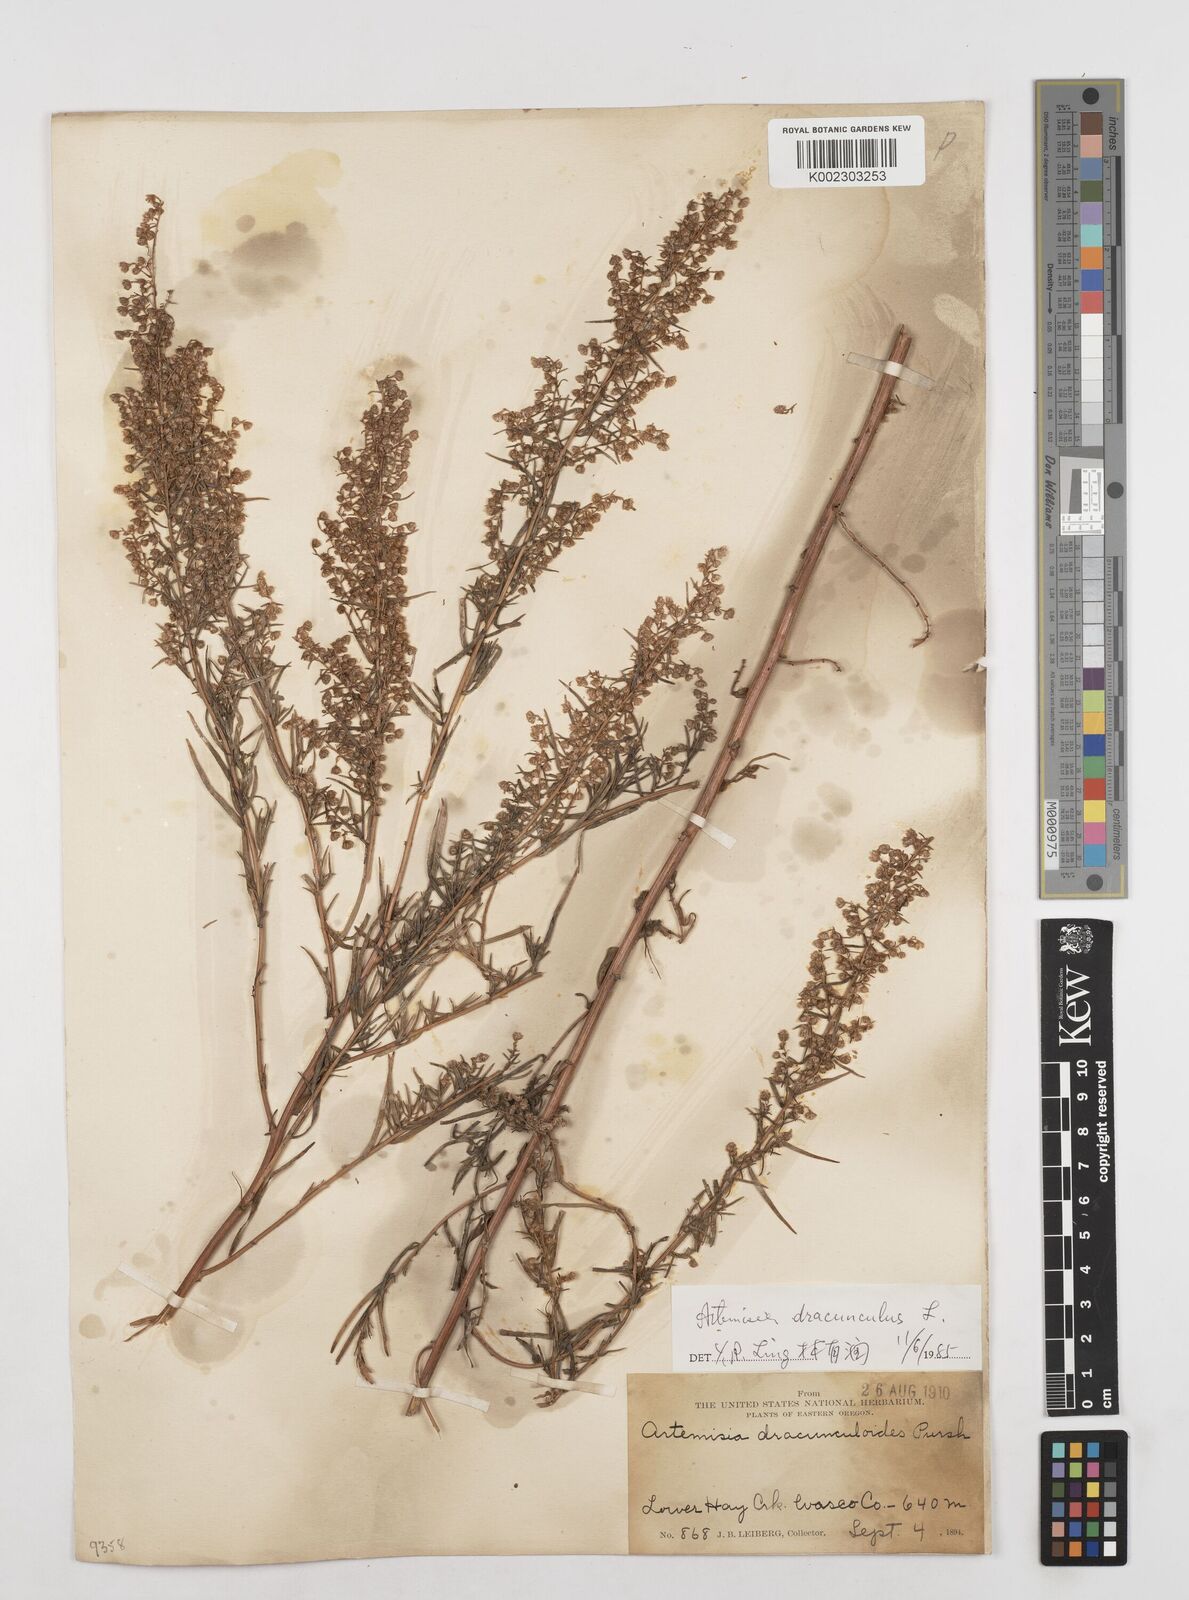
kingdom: Plantae
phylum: Tracheophyta
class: Magnoliopsida
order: Asterales
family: Asteraceae
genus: Artemisia
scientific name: Artemisia dracunculus
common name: Tarragon
